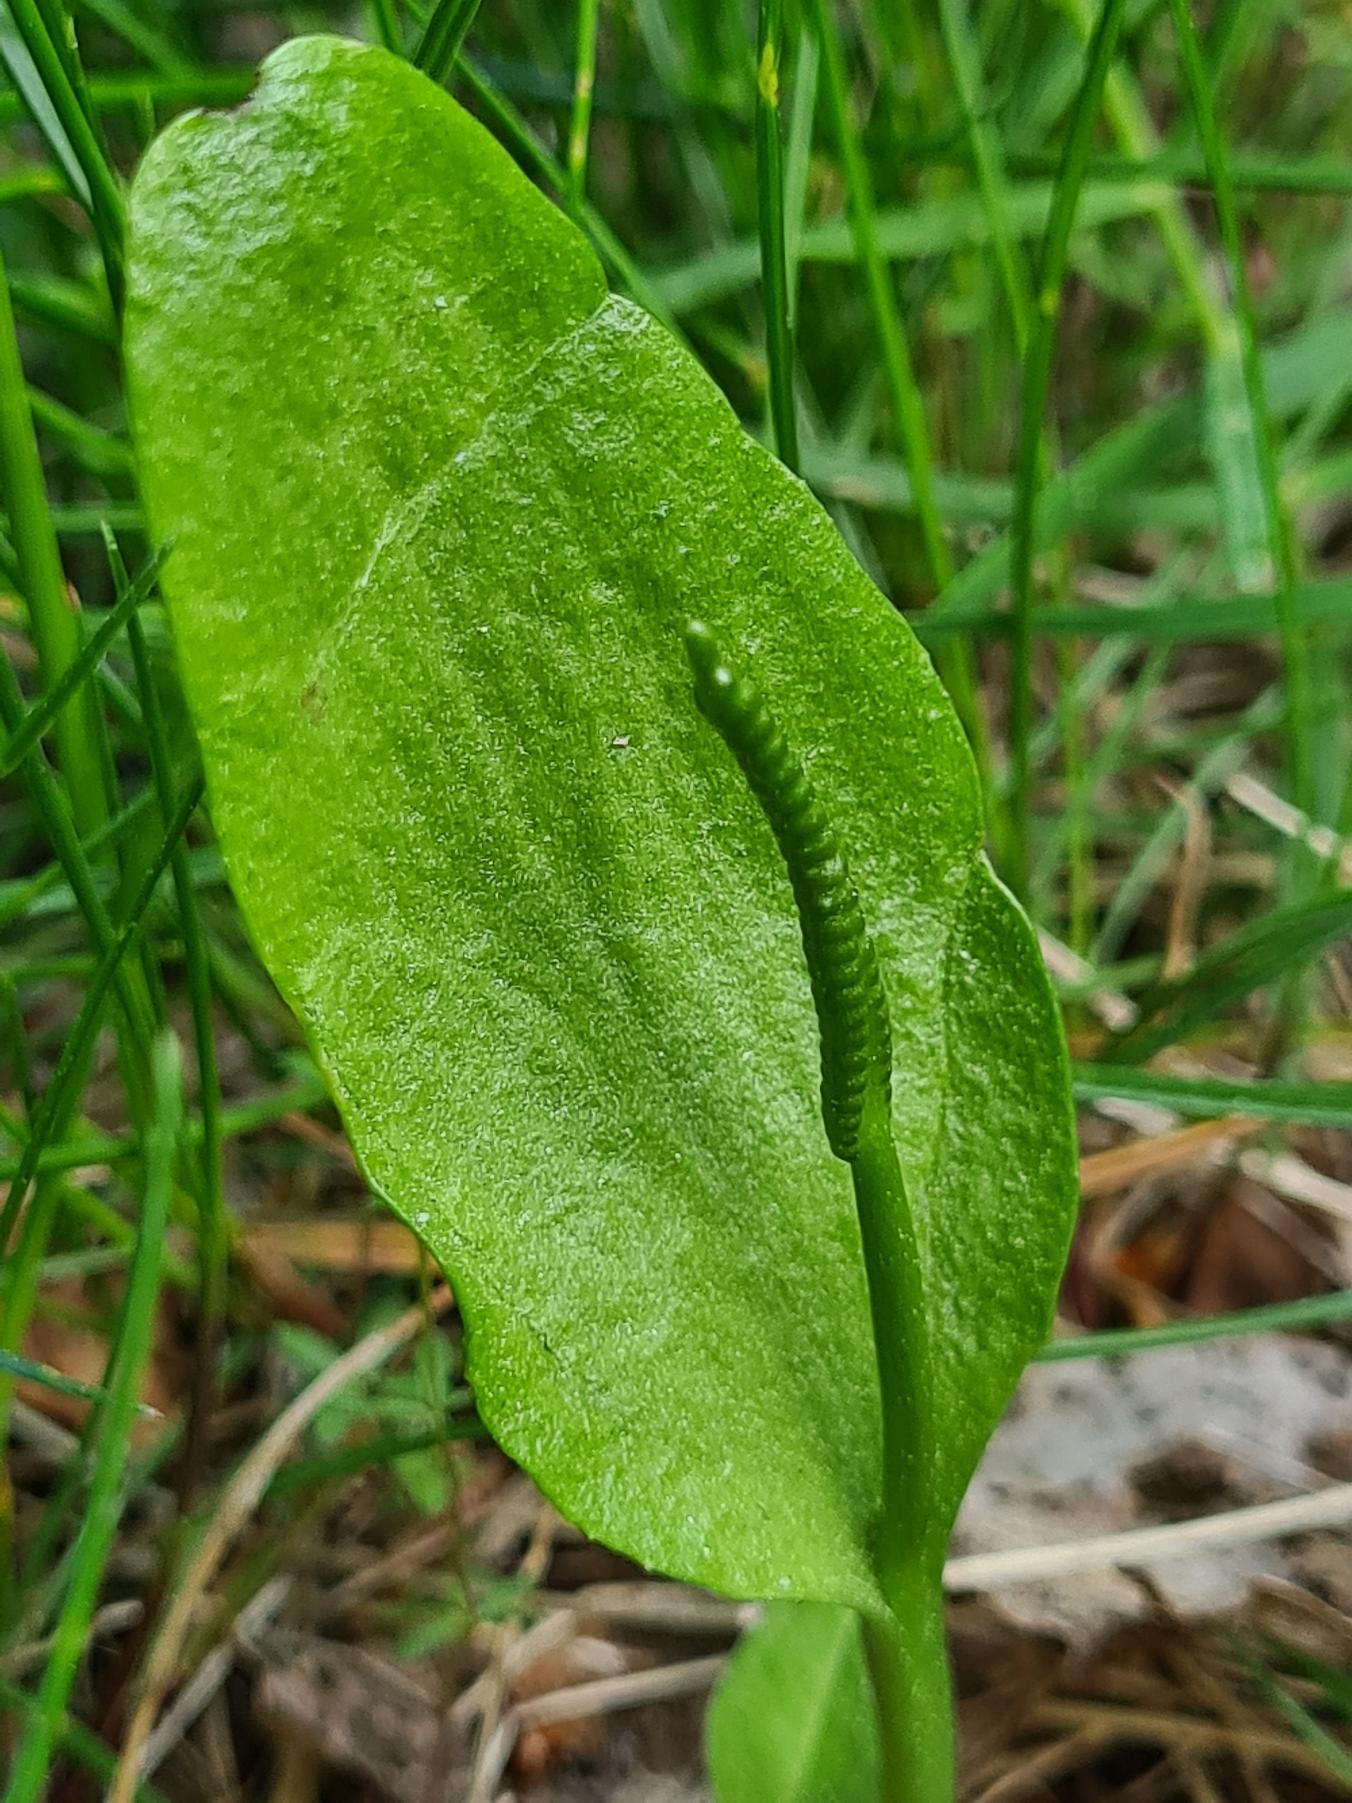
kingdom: Plantae
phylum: Tracheophyta
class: Polypodiopsida
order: Ophioglossales
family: Ophioglossaceae
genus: Ophioglossum
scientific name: Ophioglossum vulgatum
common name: Slangetunge
